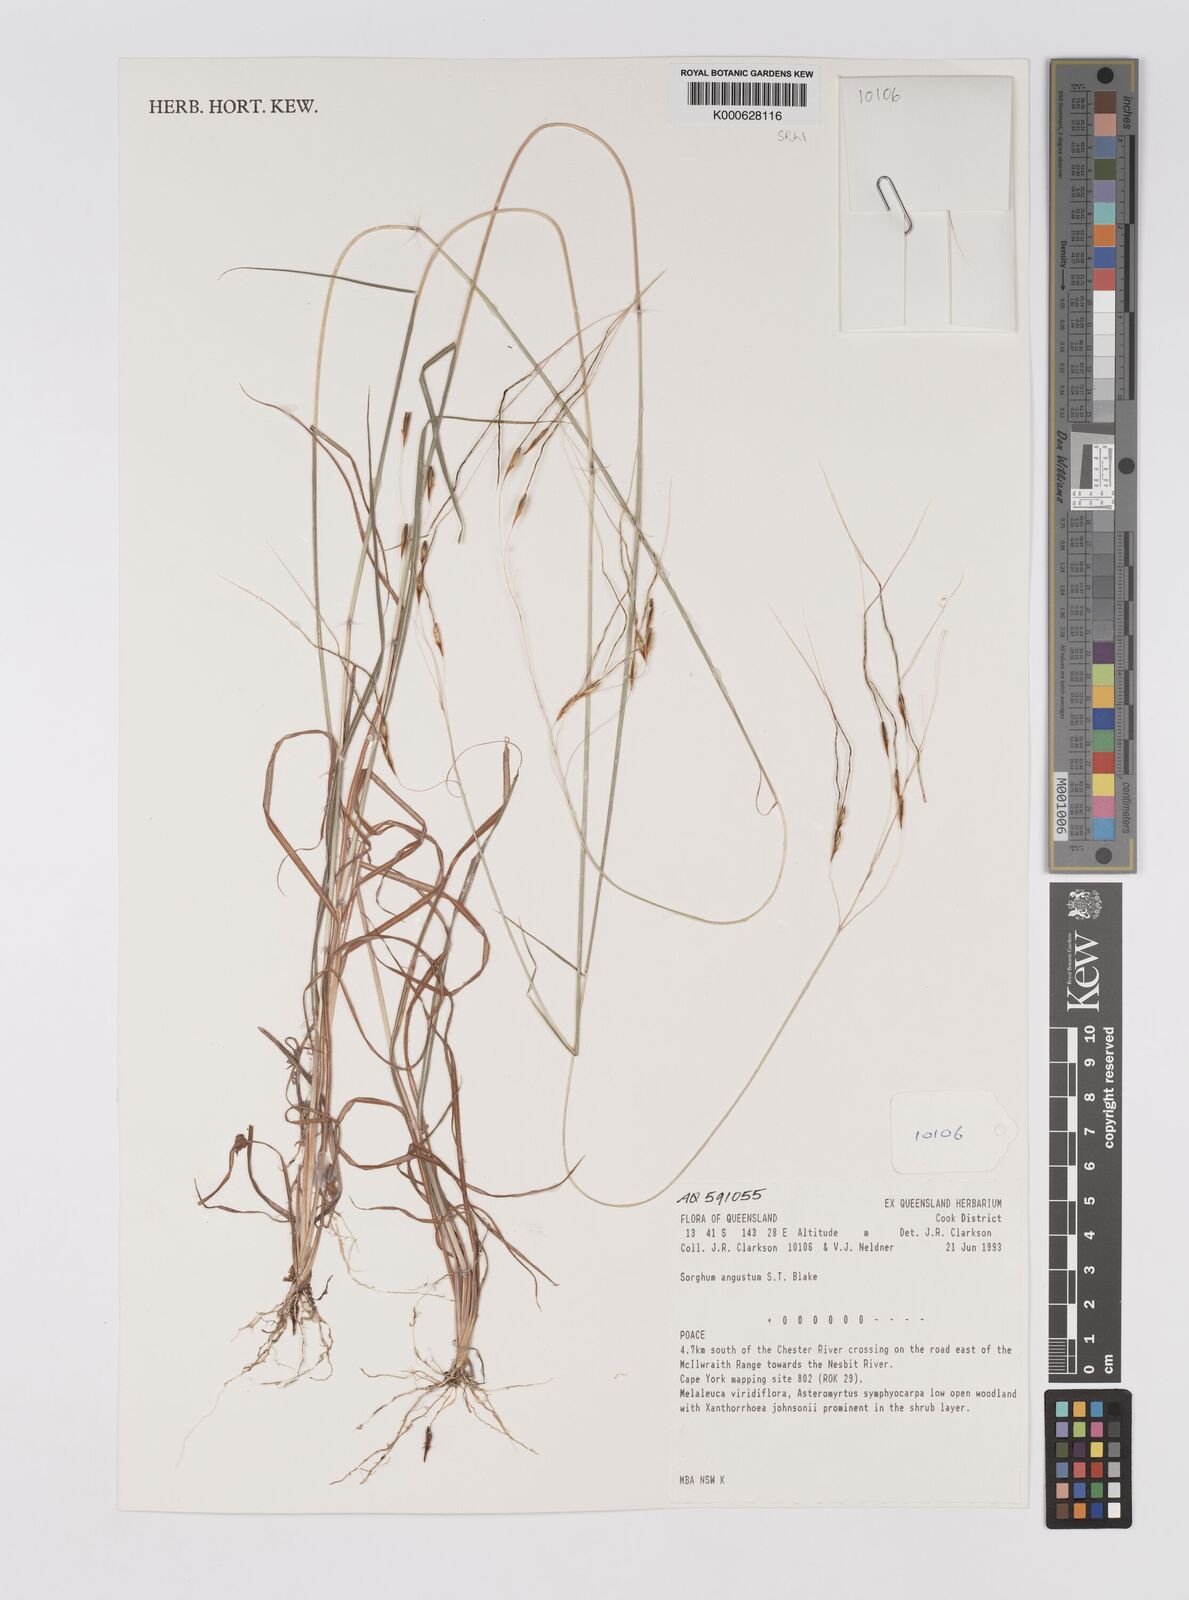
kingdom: Plantae
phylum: Tracheophyta
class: Liliopsida
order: Poales
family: Poaceae
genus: Sarga
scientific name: Sarga angusta
